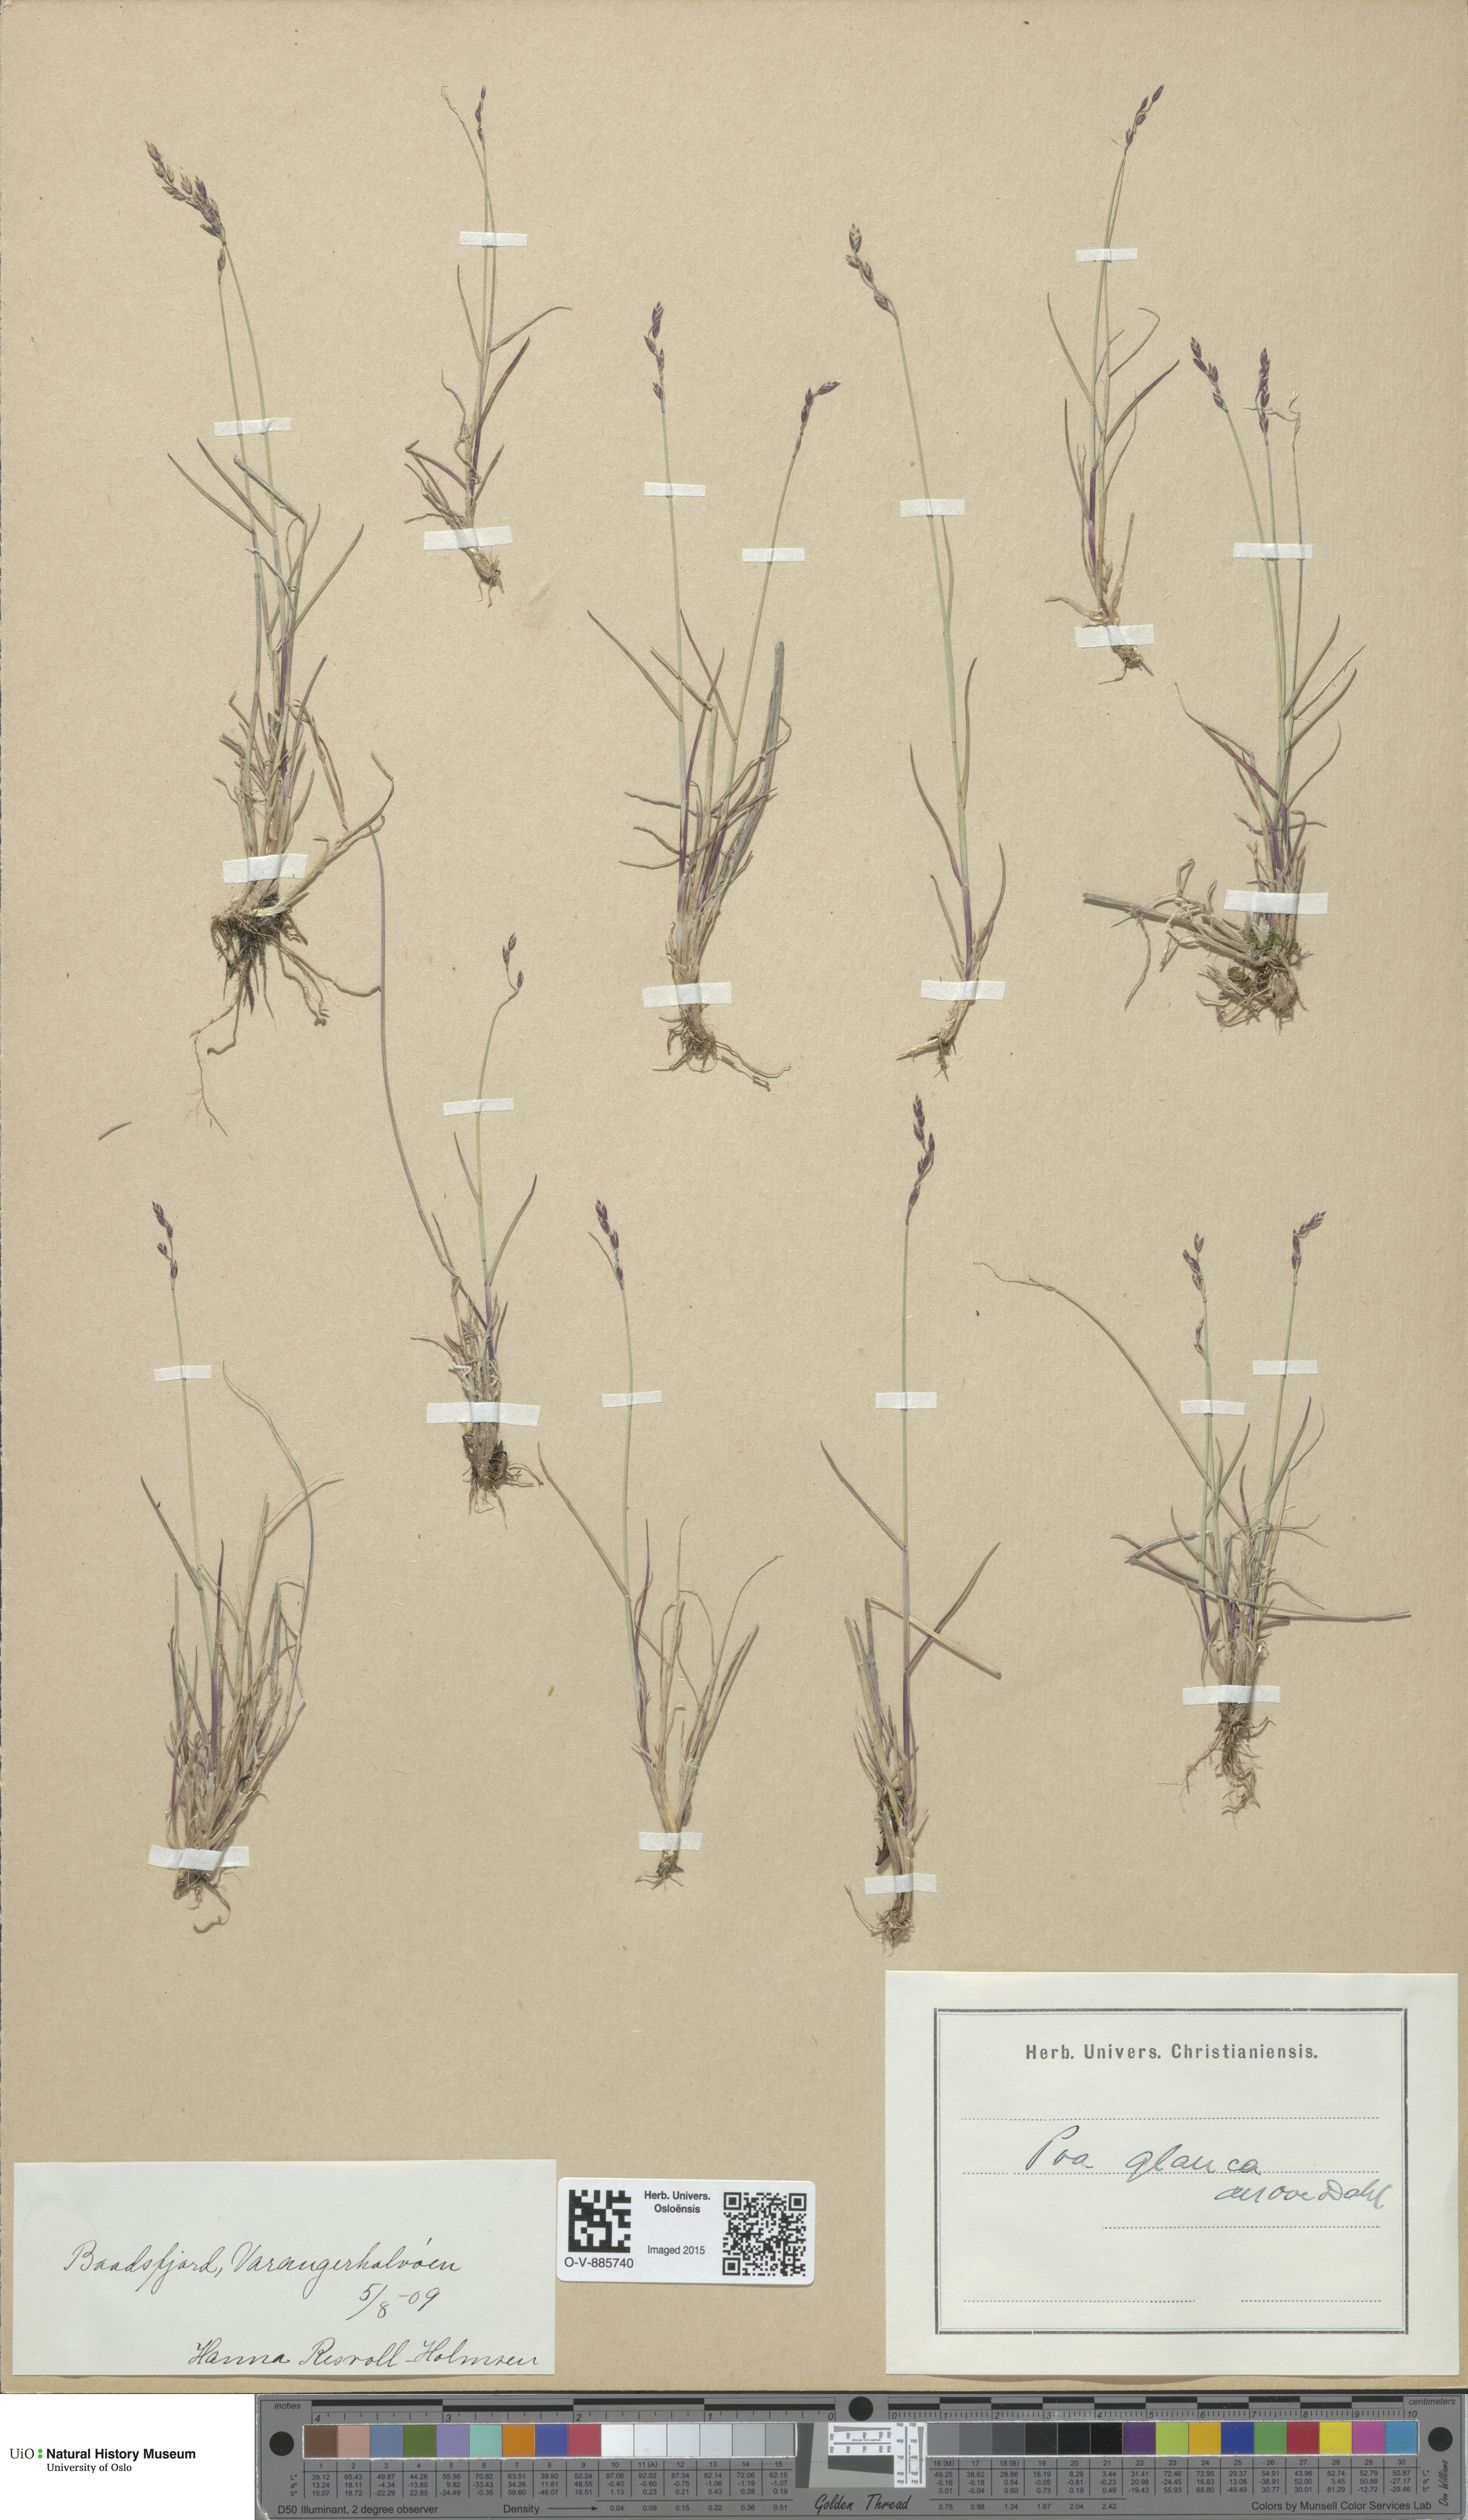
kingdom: Plantae
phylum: Tracheophyta
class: Liliopsida
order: Poales
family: Poaceae
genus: Poa
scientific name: Poa glauca
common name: Glaucous bluegrass
